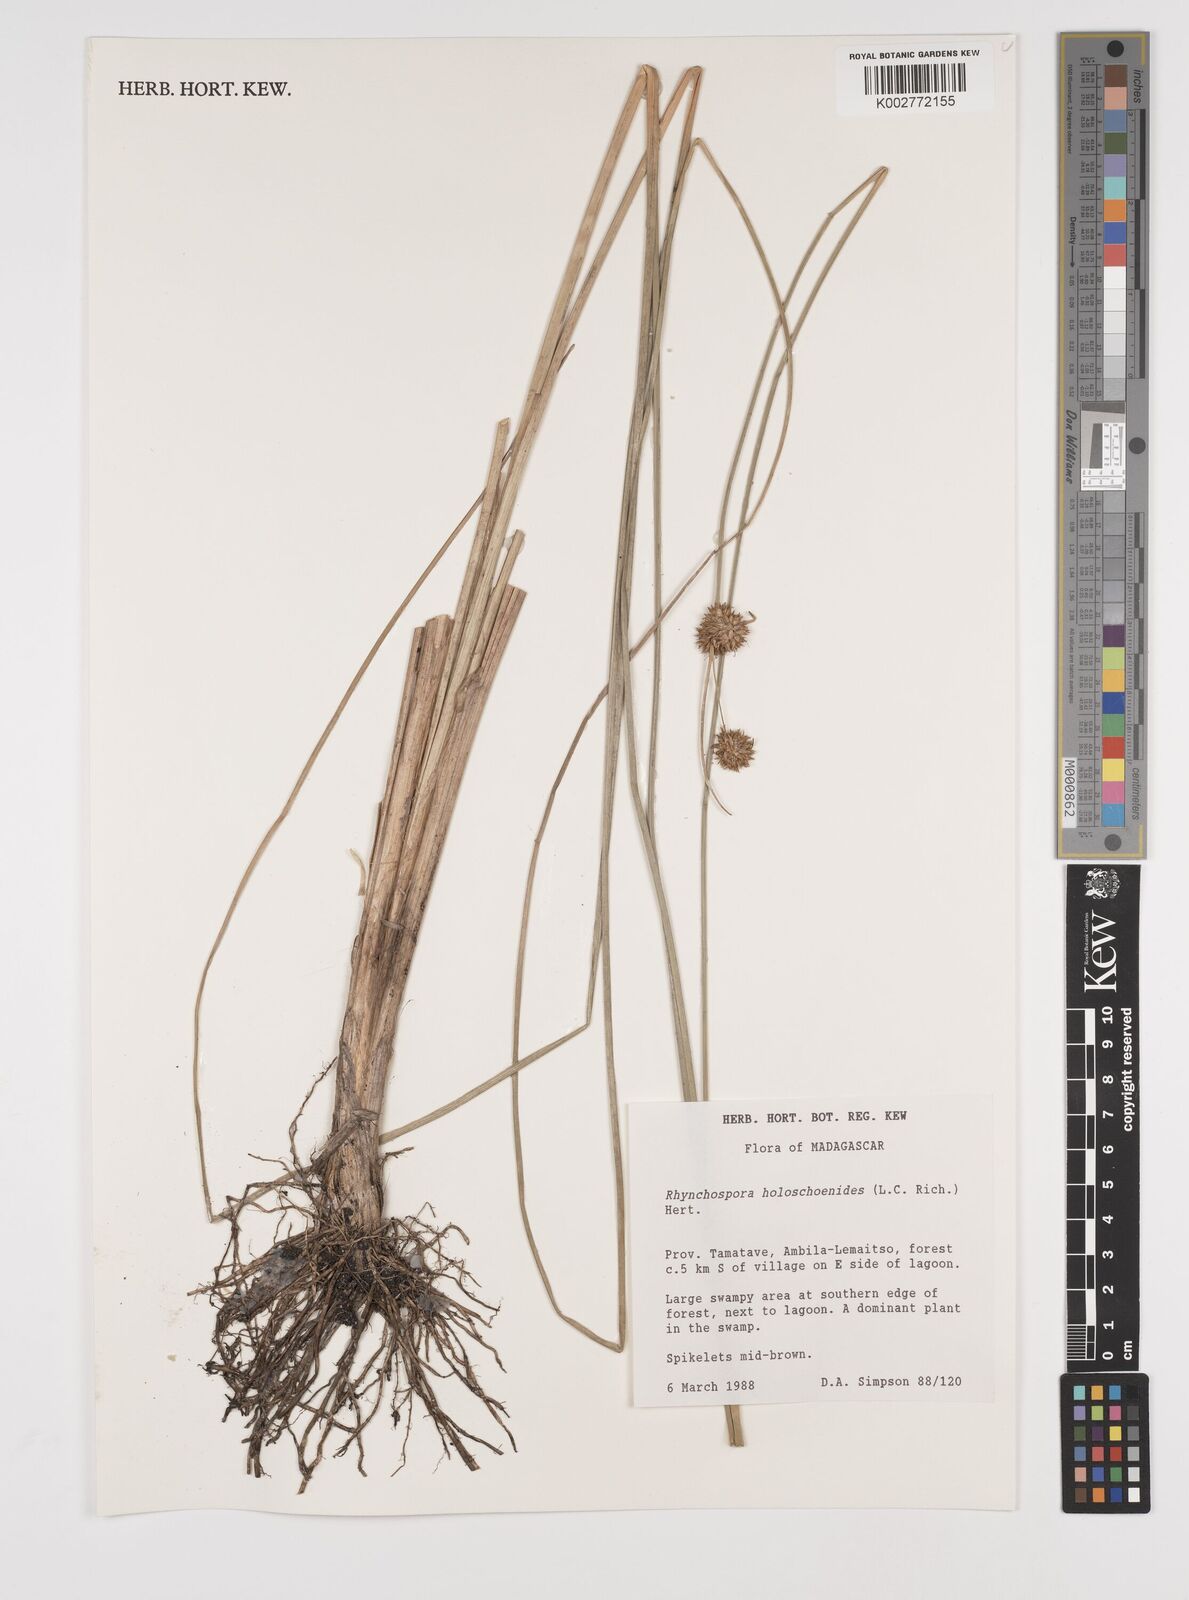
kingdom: Plantae
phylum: Tracheophyta
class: Liliopsida
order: Poales
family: Cyperaceae
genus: Rhynchospora
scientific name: Rhynchospora holoschoenoides
